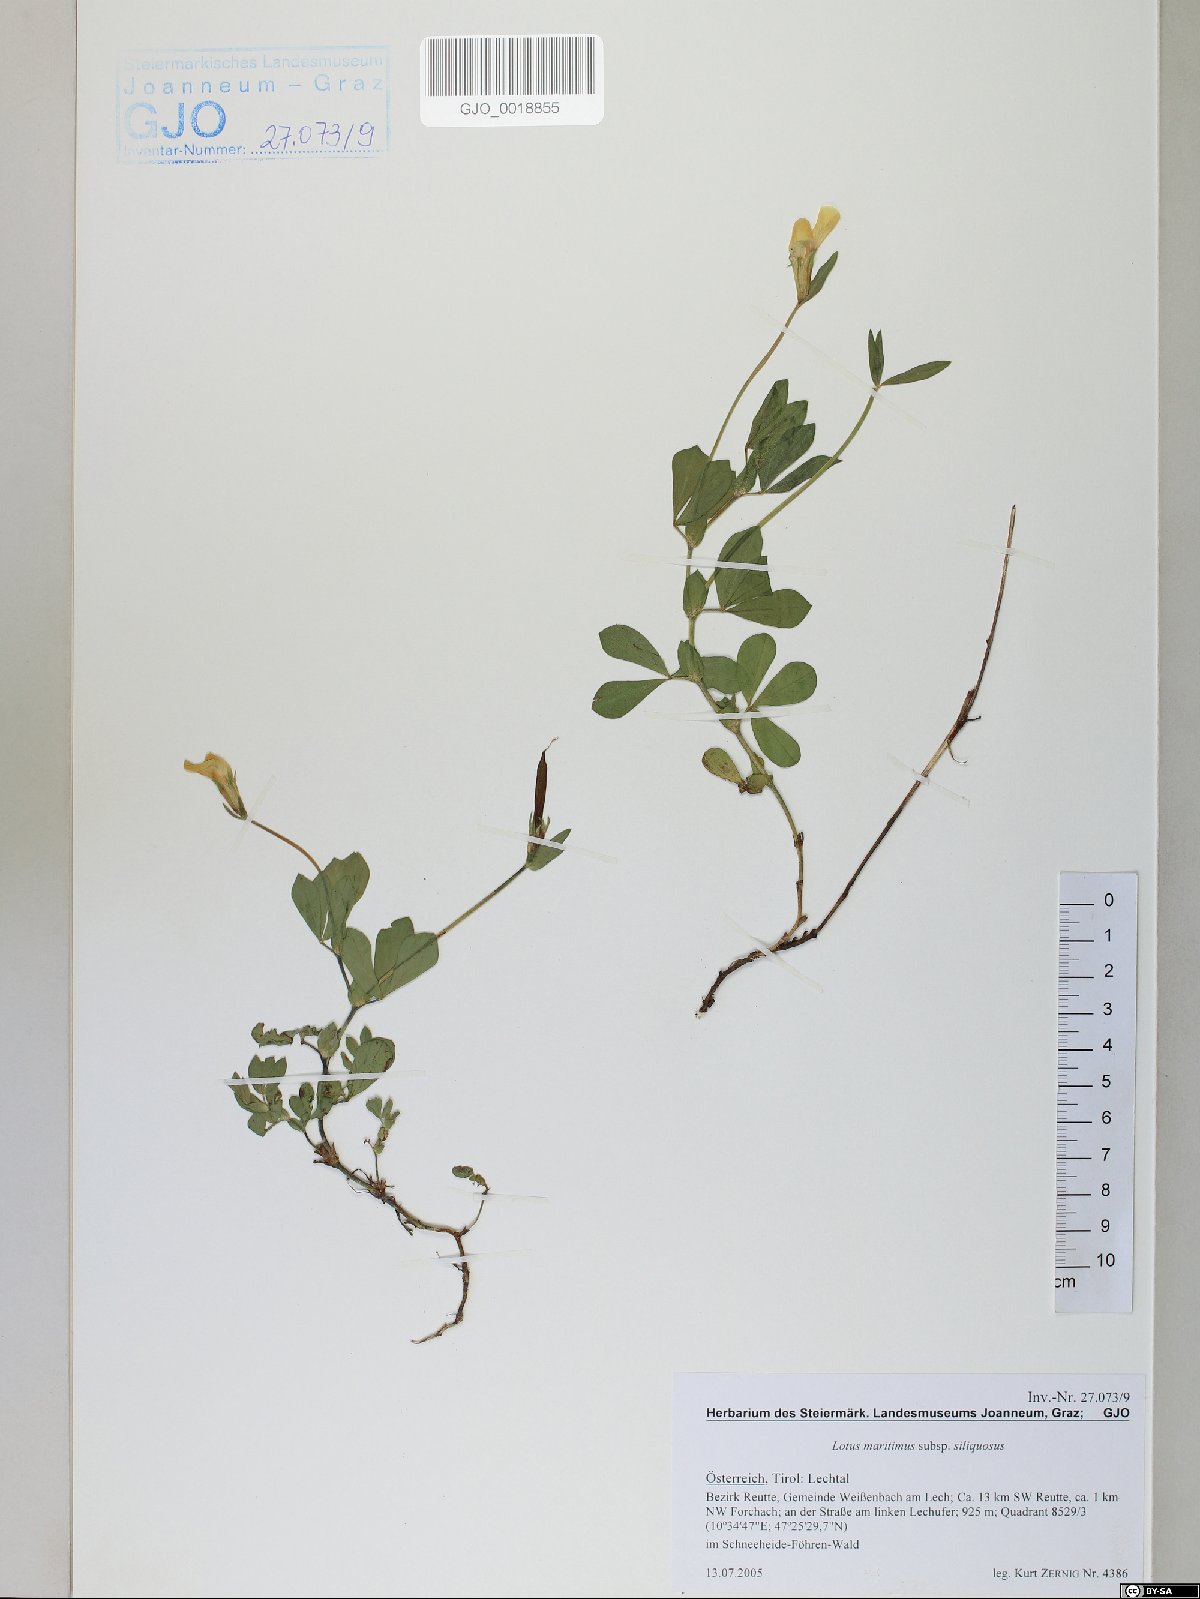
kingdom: Plantae
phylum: Tracheophyta
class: Magnoliopsida
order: Fabales
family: Fabaceae
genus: Lathyrus
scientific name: Lathyrus inconspicuus
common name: Inconspicuous pea
